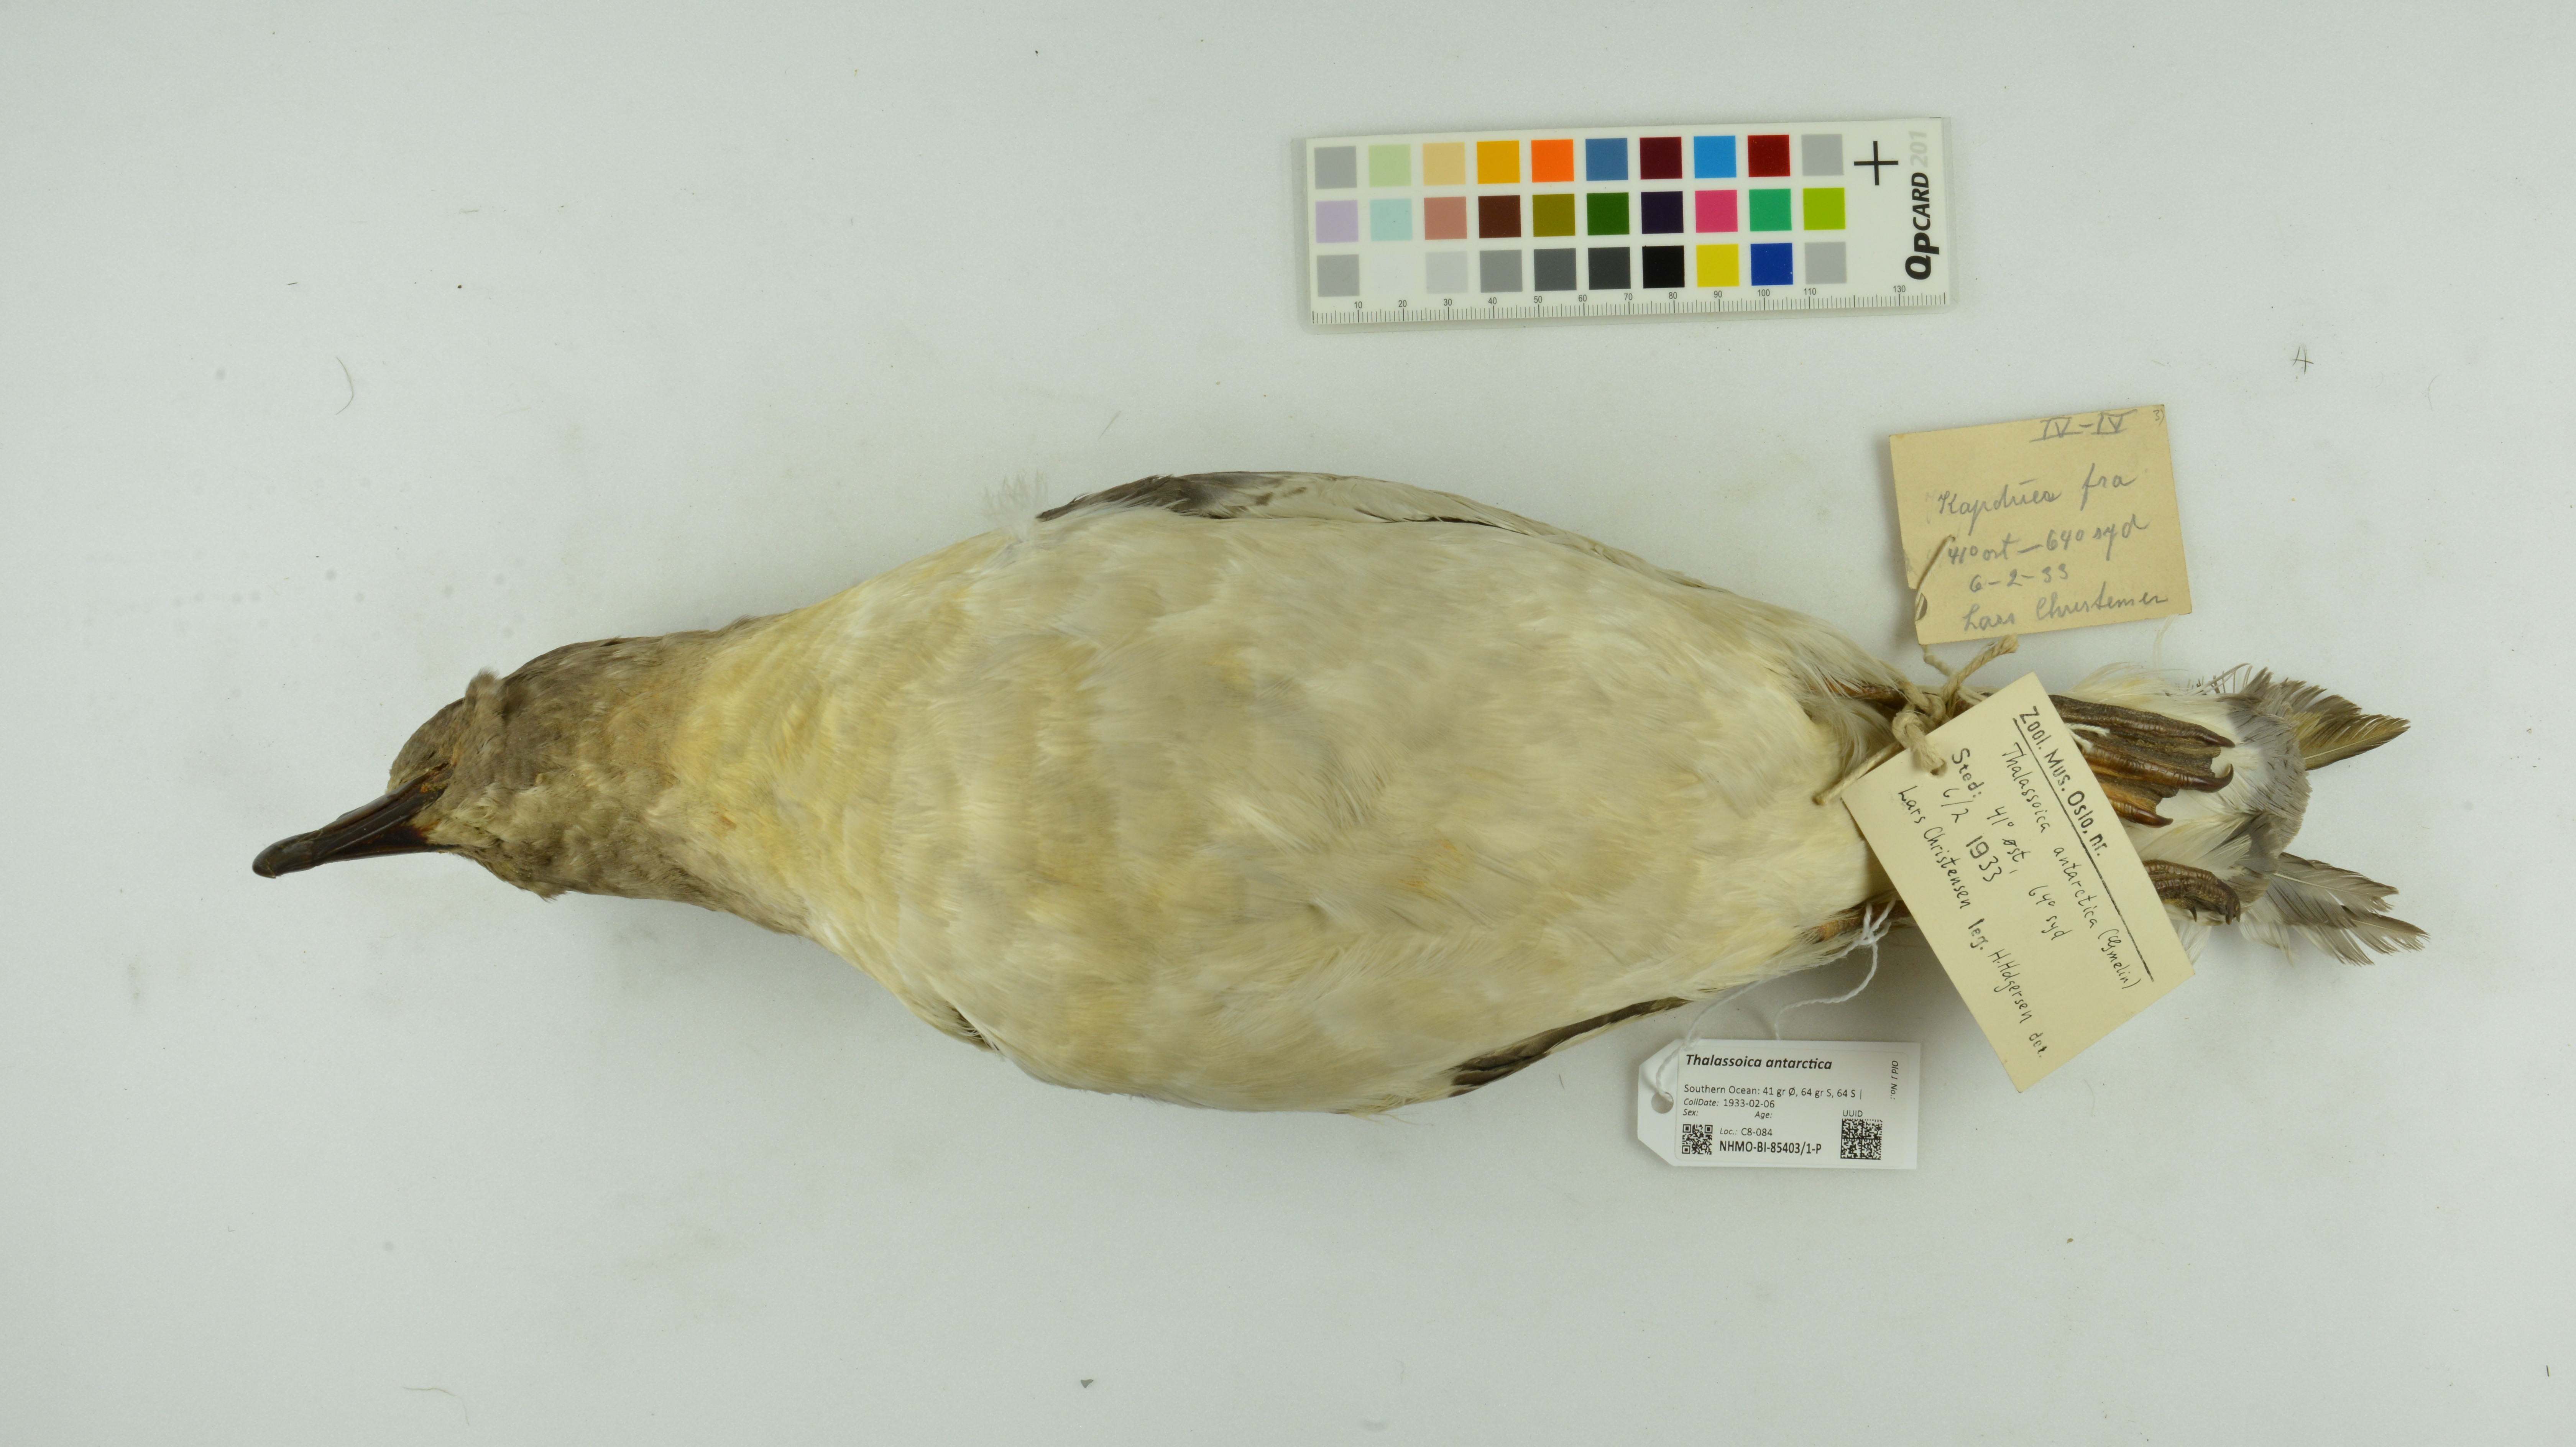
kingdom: Animalia
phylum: Chordata
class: Aves
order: Procellariiformes
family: Procellariidae
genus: Thalassoica
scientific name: Thalassoica antarctica
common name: Antarctic petrel
